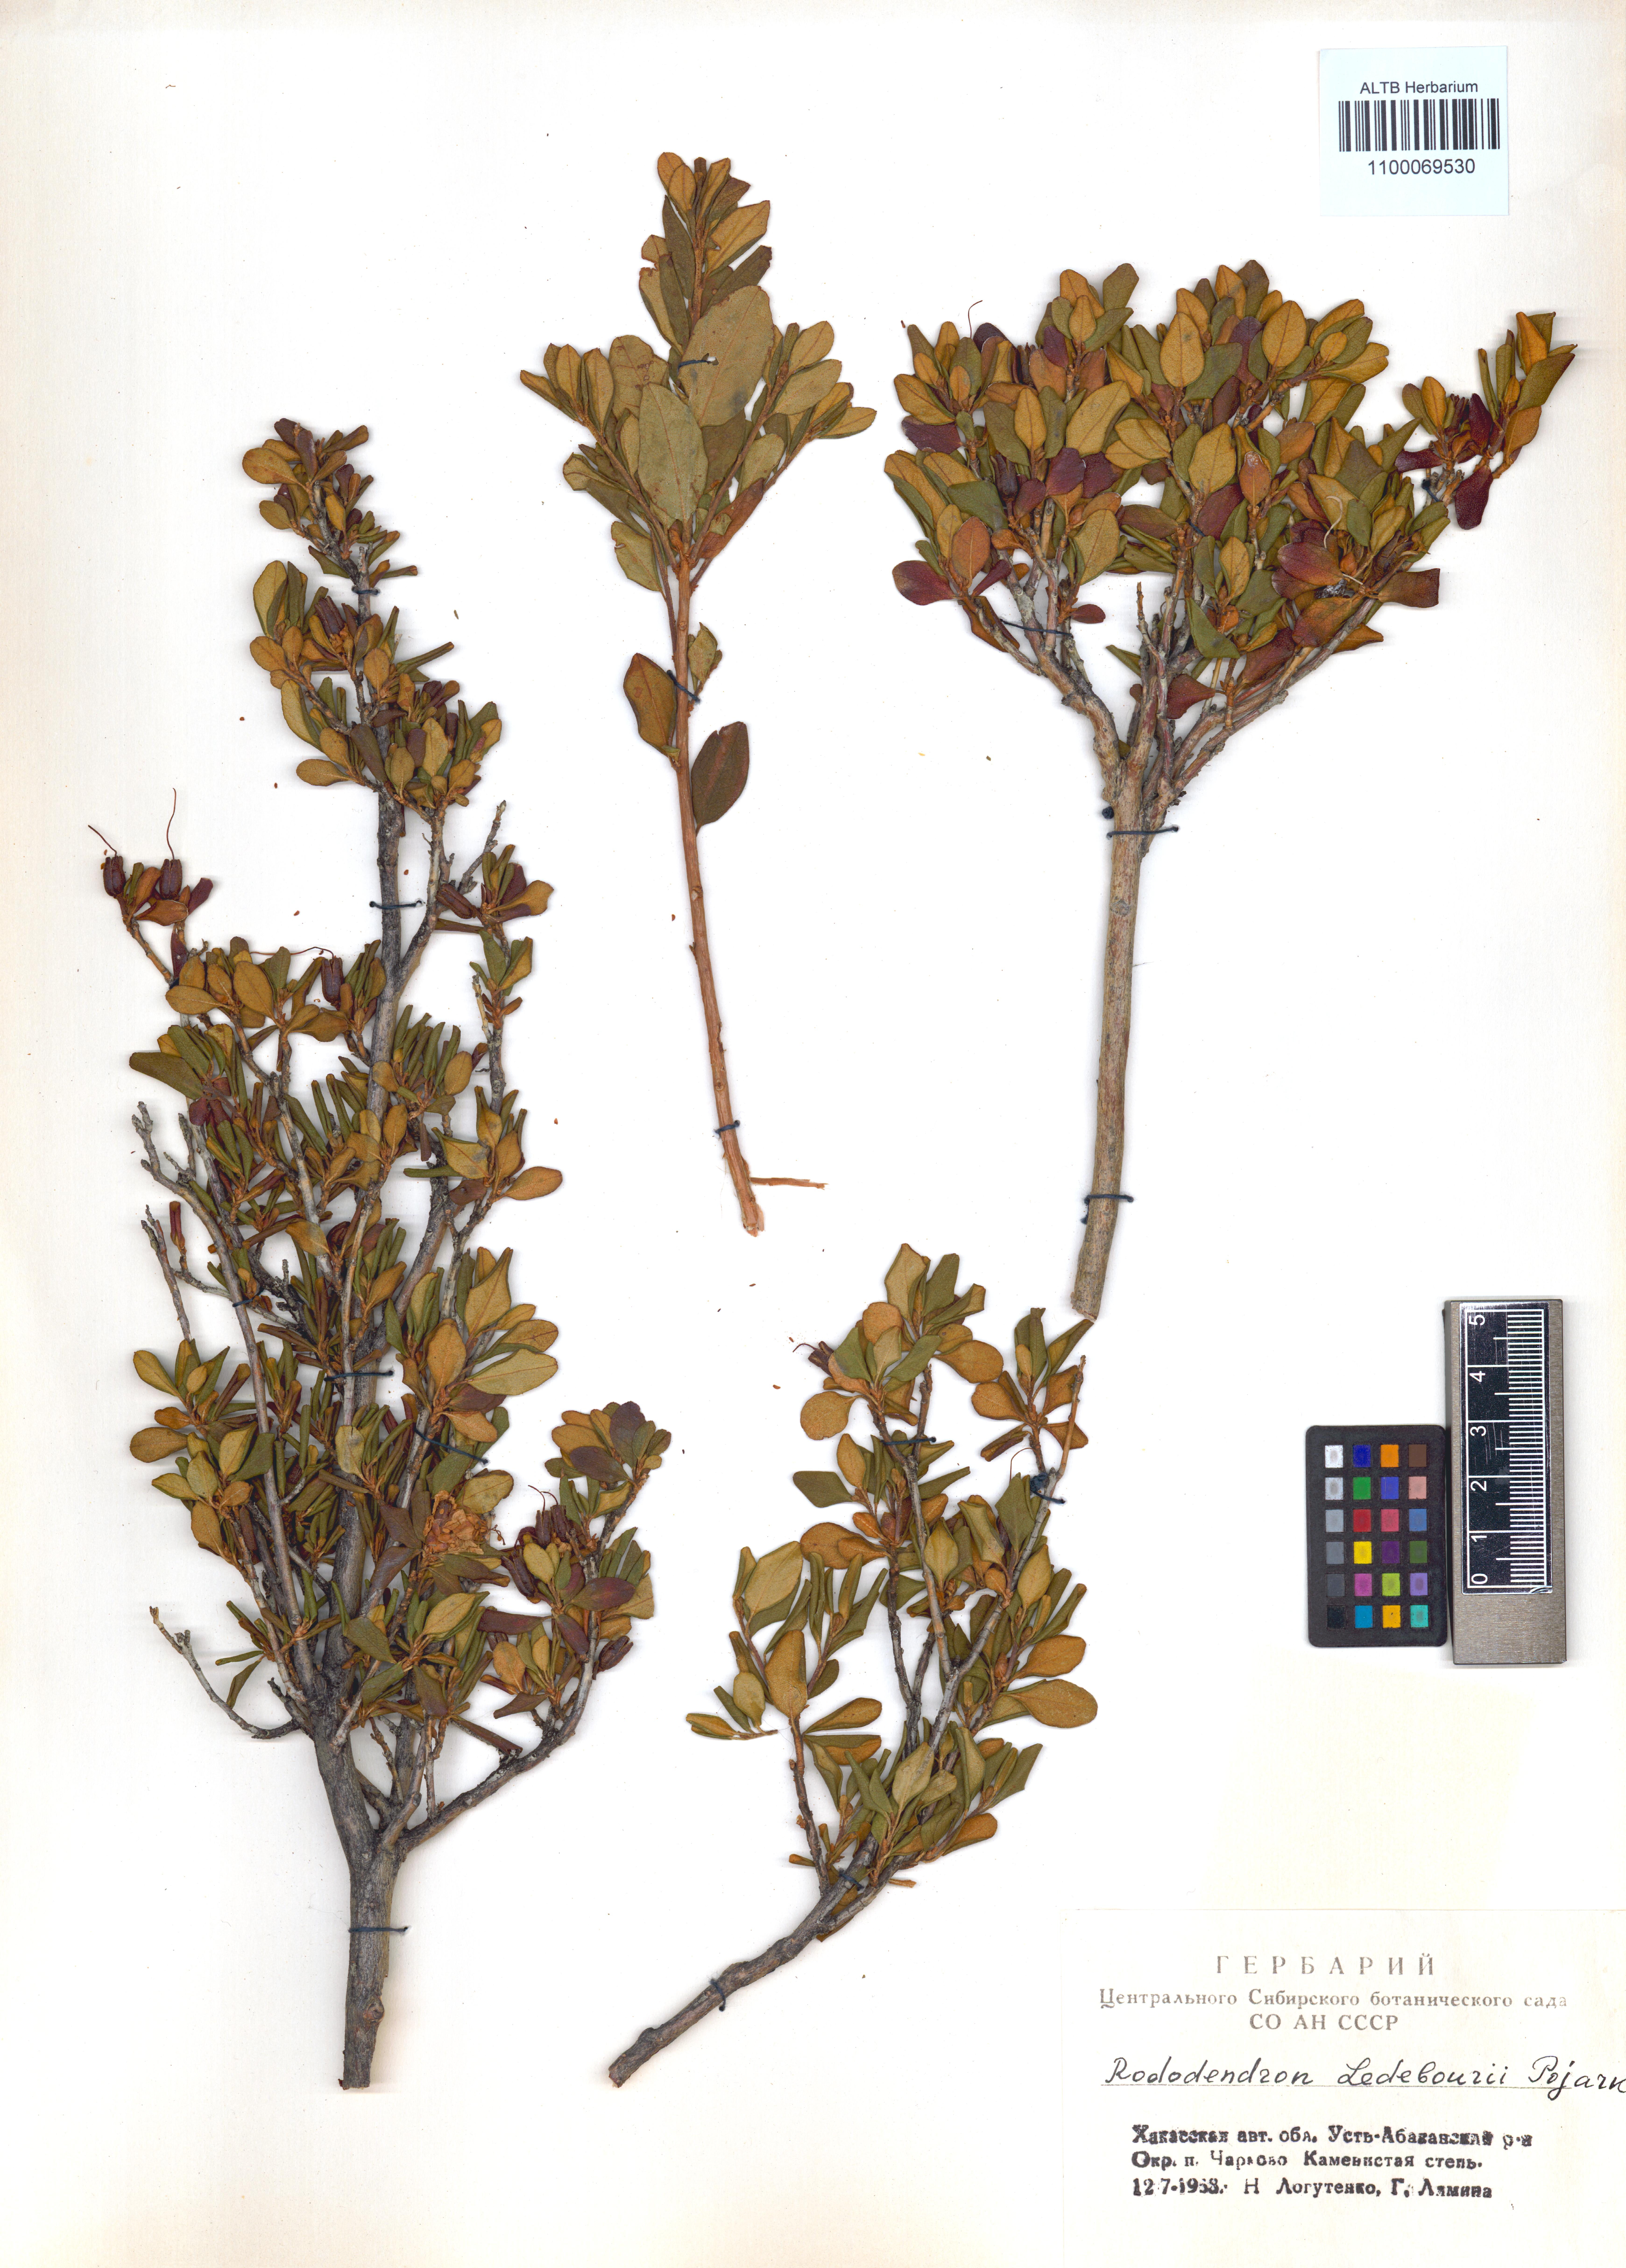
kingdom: Plantae
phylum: Tracheophyta
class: Magnoliopsida
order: Ericales
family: Ericaceae
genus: Rhododendron
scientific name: Rhododendron dauricum
